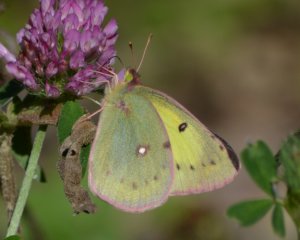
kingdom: Animalia
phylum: Arthropoda
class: Insecta
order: Lepidoptera
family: Pieridae
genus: Colias
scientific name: Colias eurytheme
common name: Orange Sulphur
